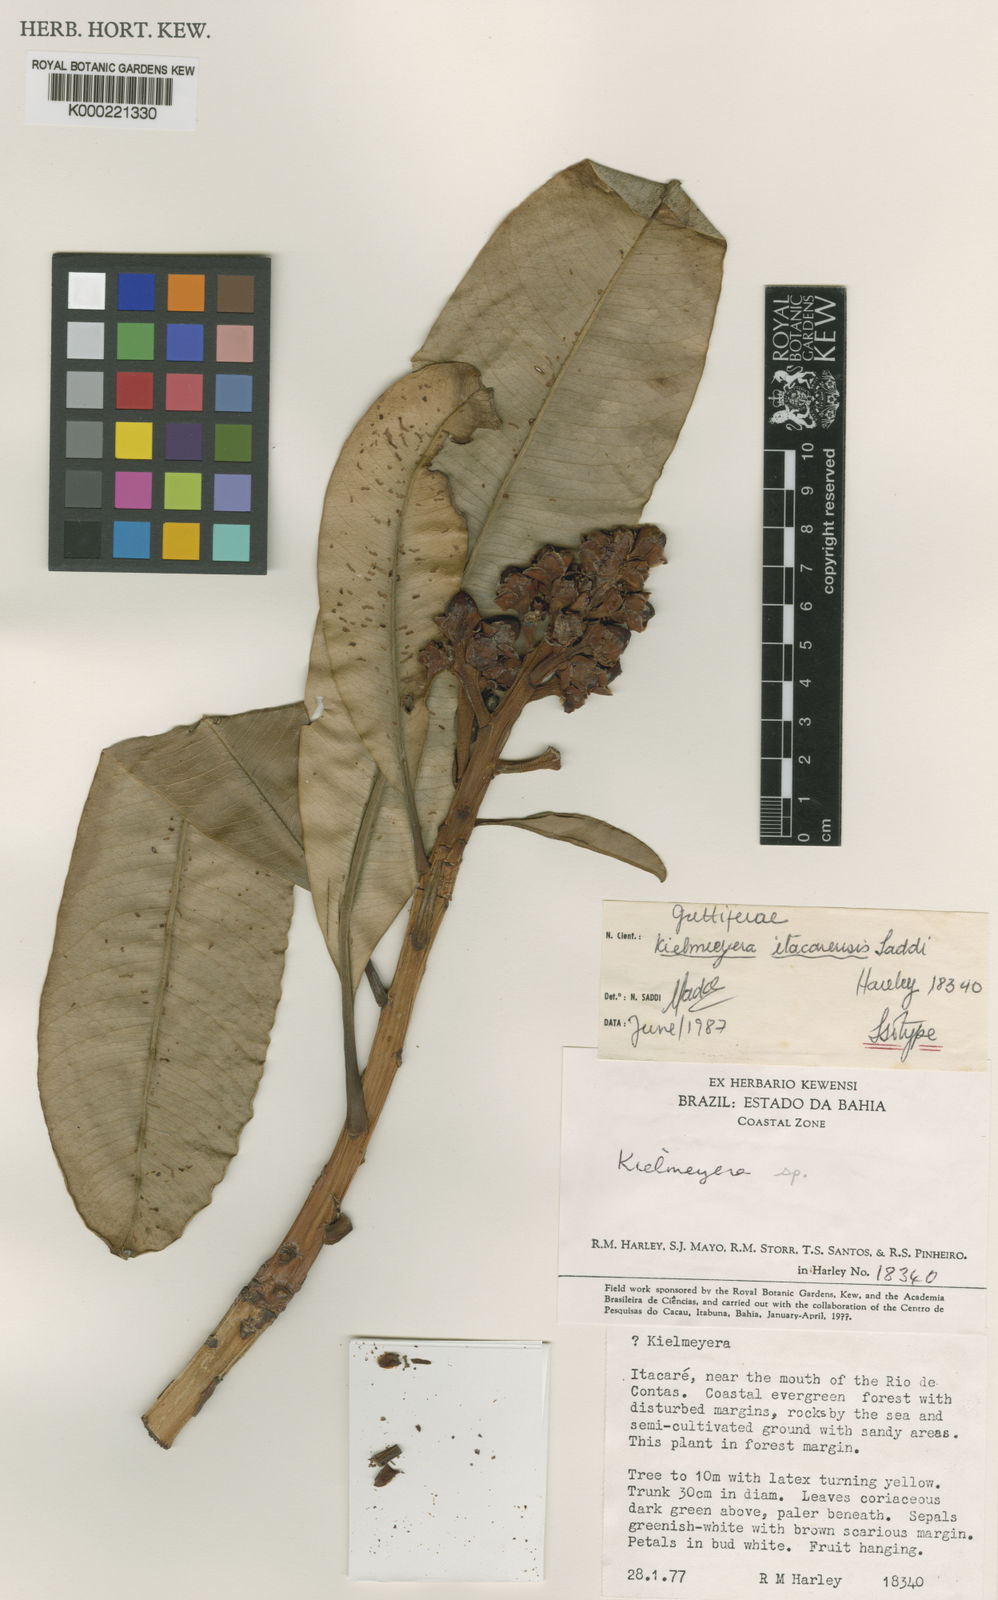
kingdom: Plantae
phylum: Tracheophyta
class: Magnoliopsida
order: Malpighiales
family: Calophyllaceae
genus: Kielmeyera
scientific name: Kielmeyera itacarensis
